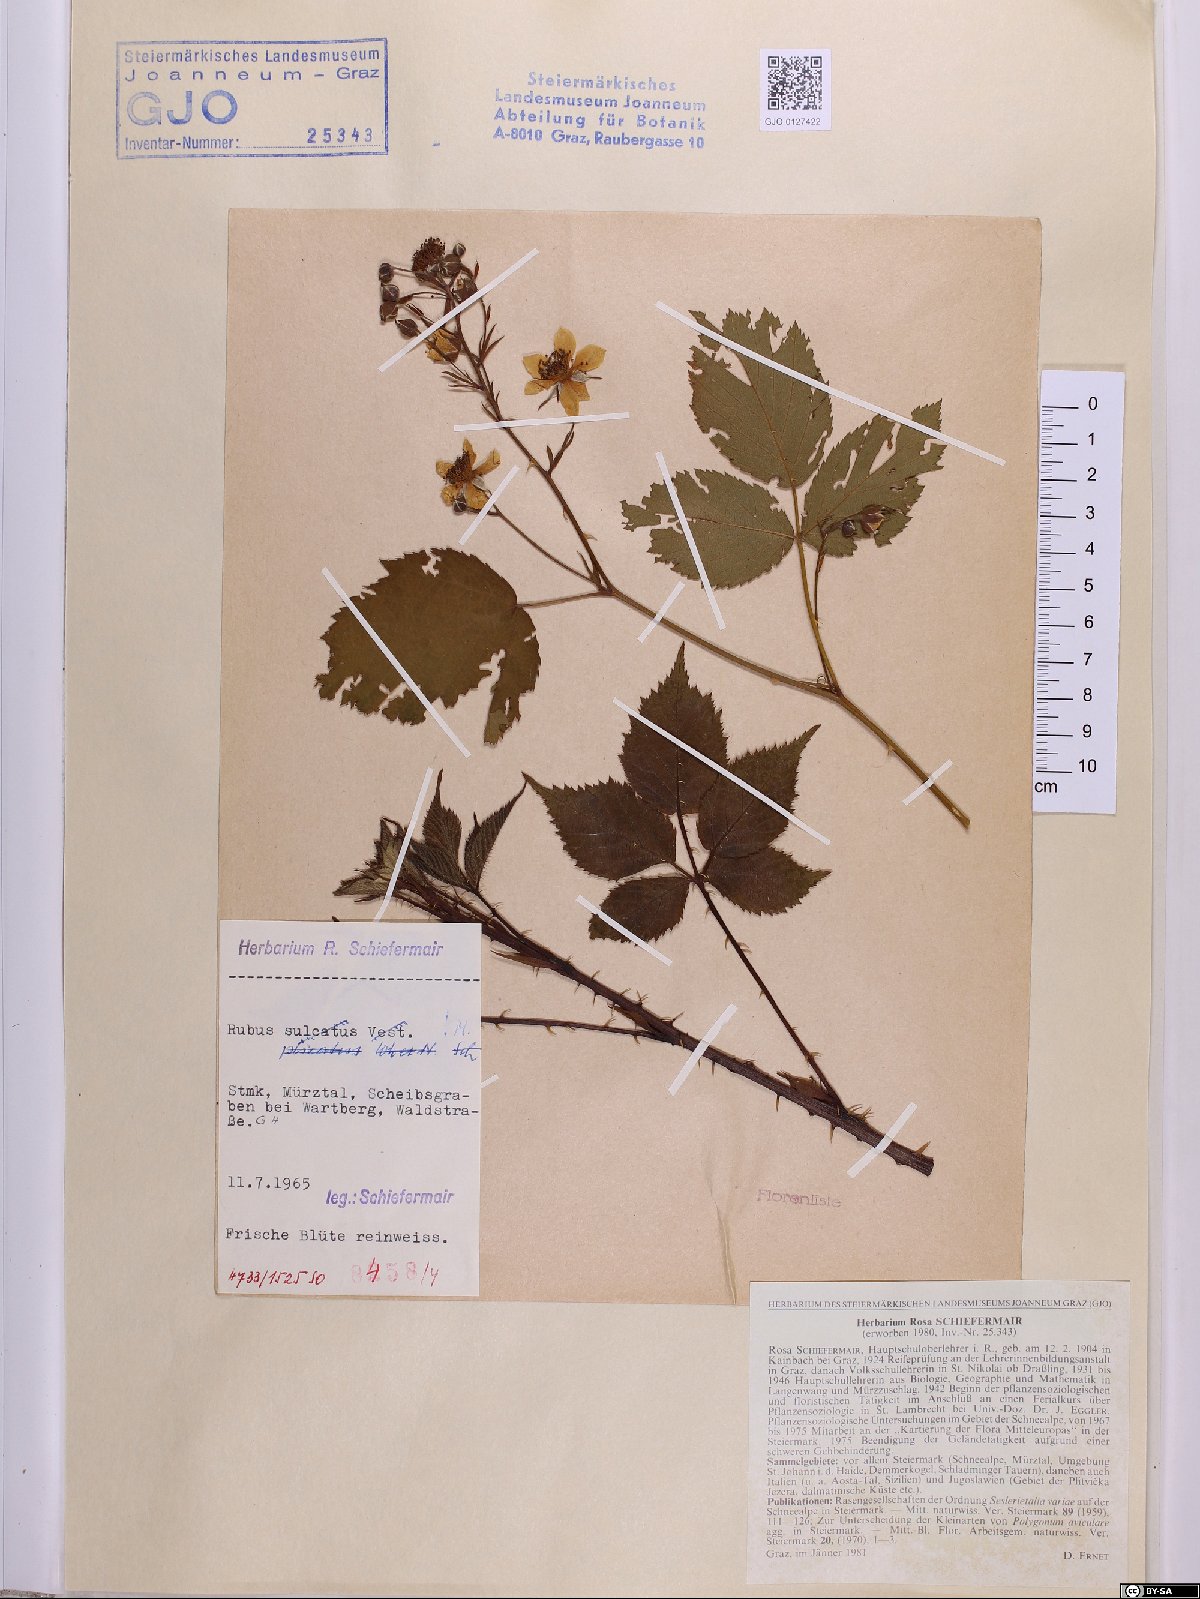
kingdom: Plantae
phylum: Tracheophyta
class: Magnoliopsida
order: Rosales
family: Rosaceae
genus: Rubus
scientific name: Rubus sulcatus
